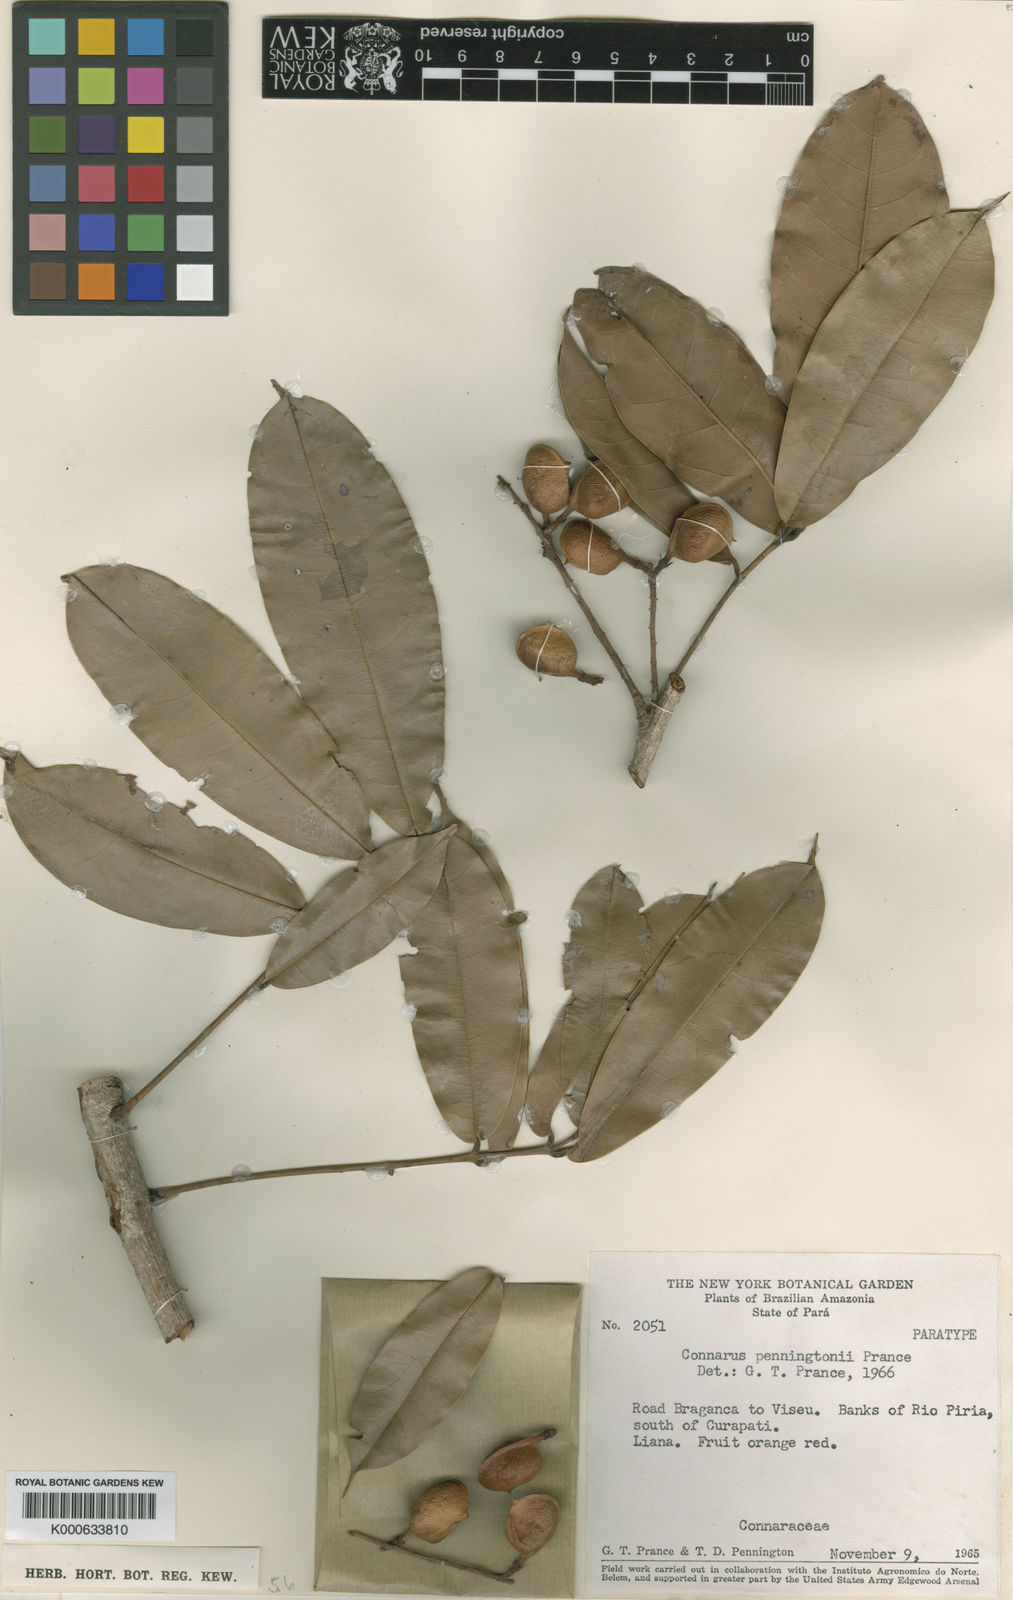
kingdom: Plantae
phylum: Tracheophyta
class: Magnoliopsida
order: Oxalidales
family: Connaraceae
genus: Connarus
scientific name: Connarus punctatus
